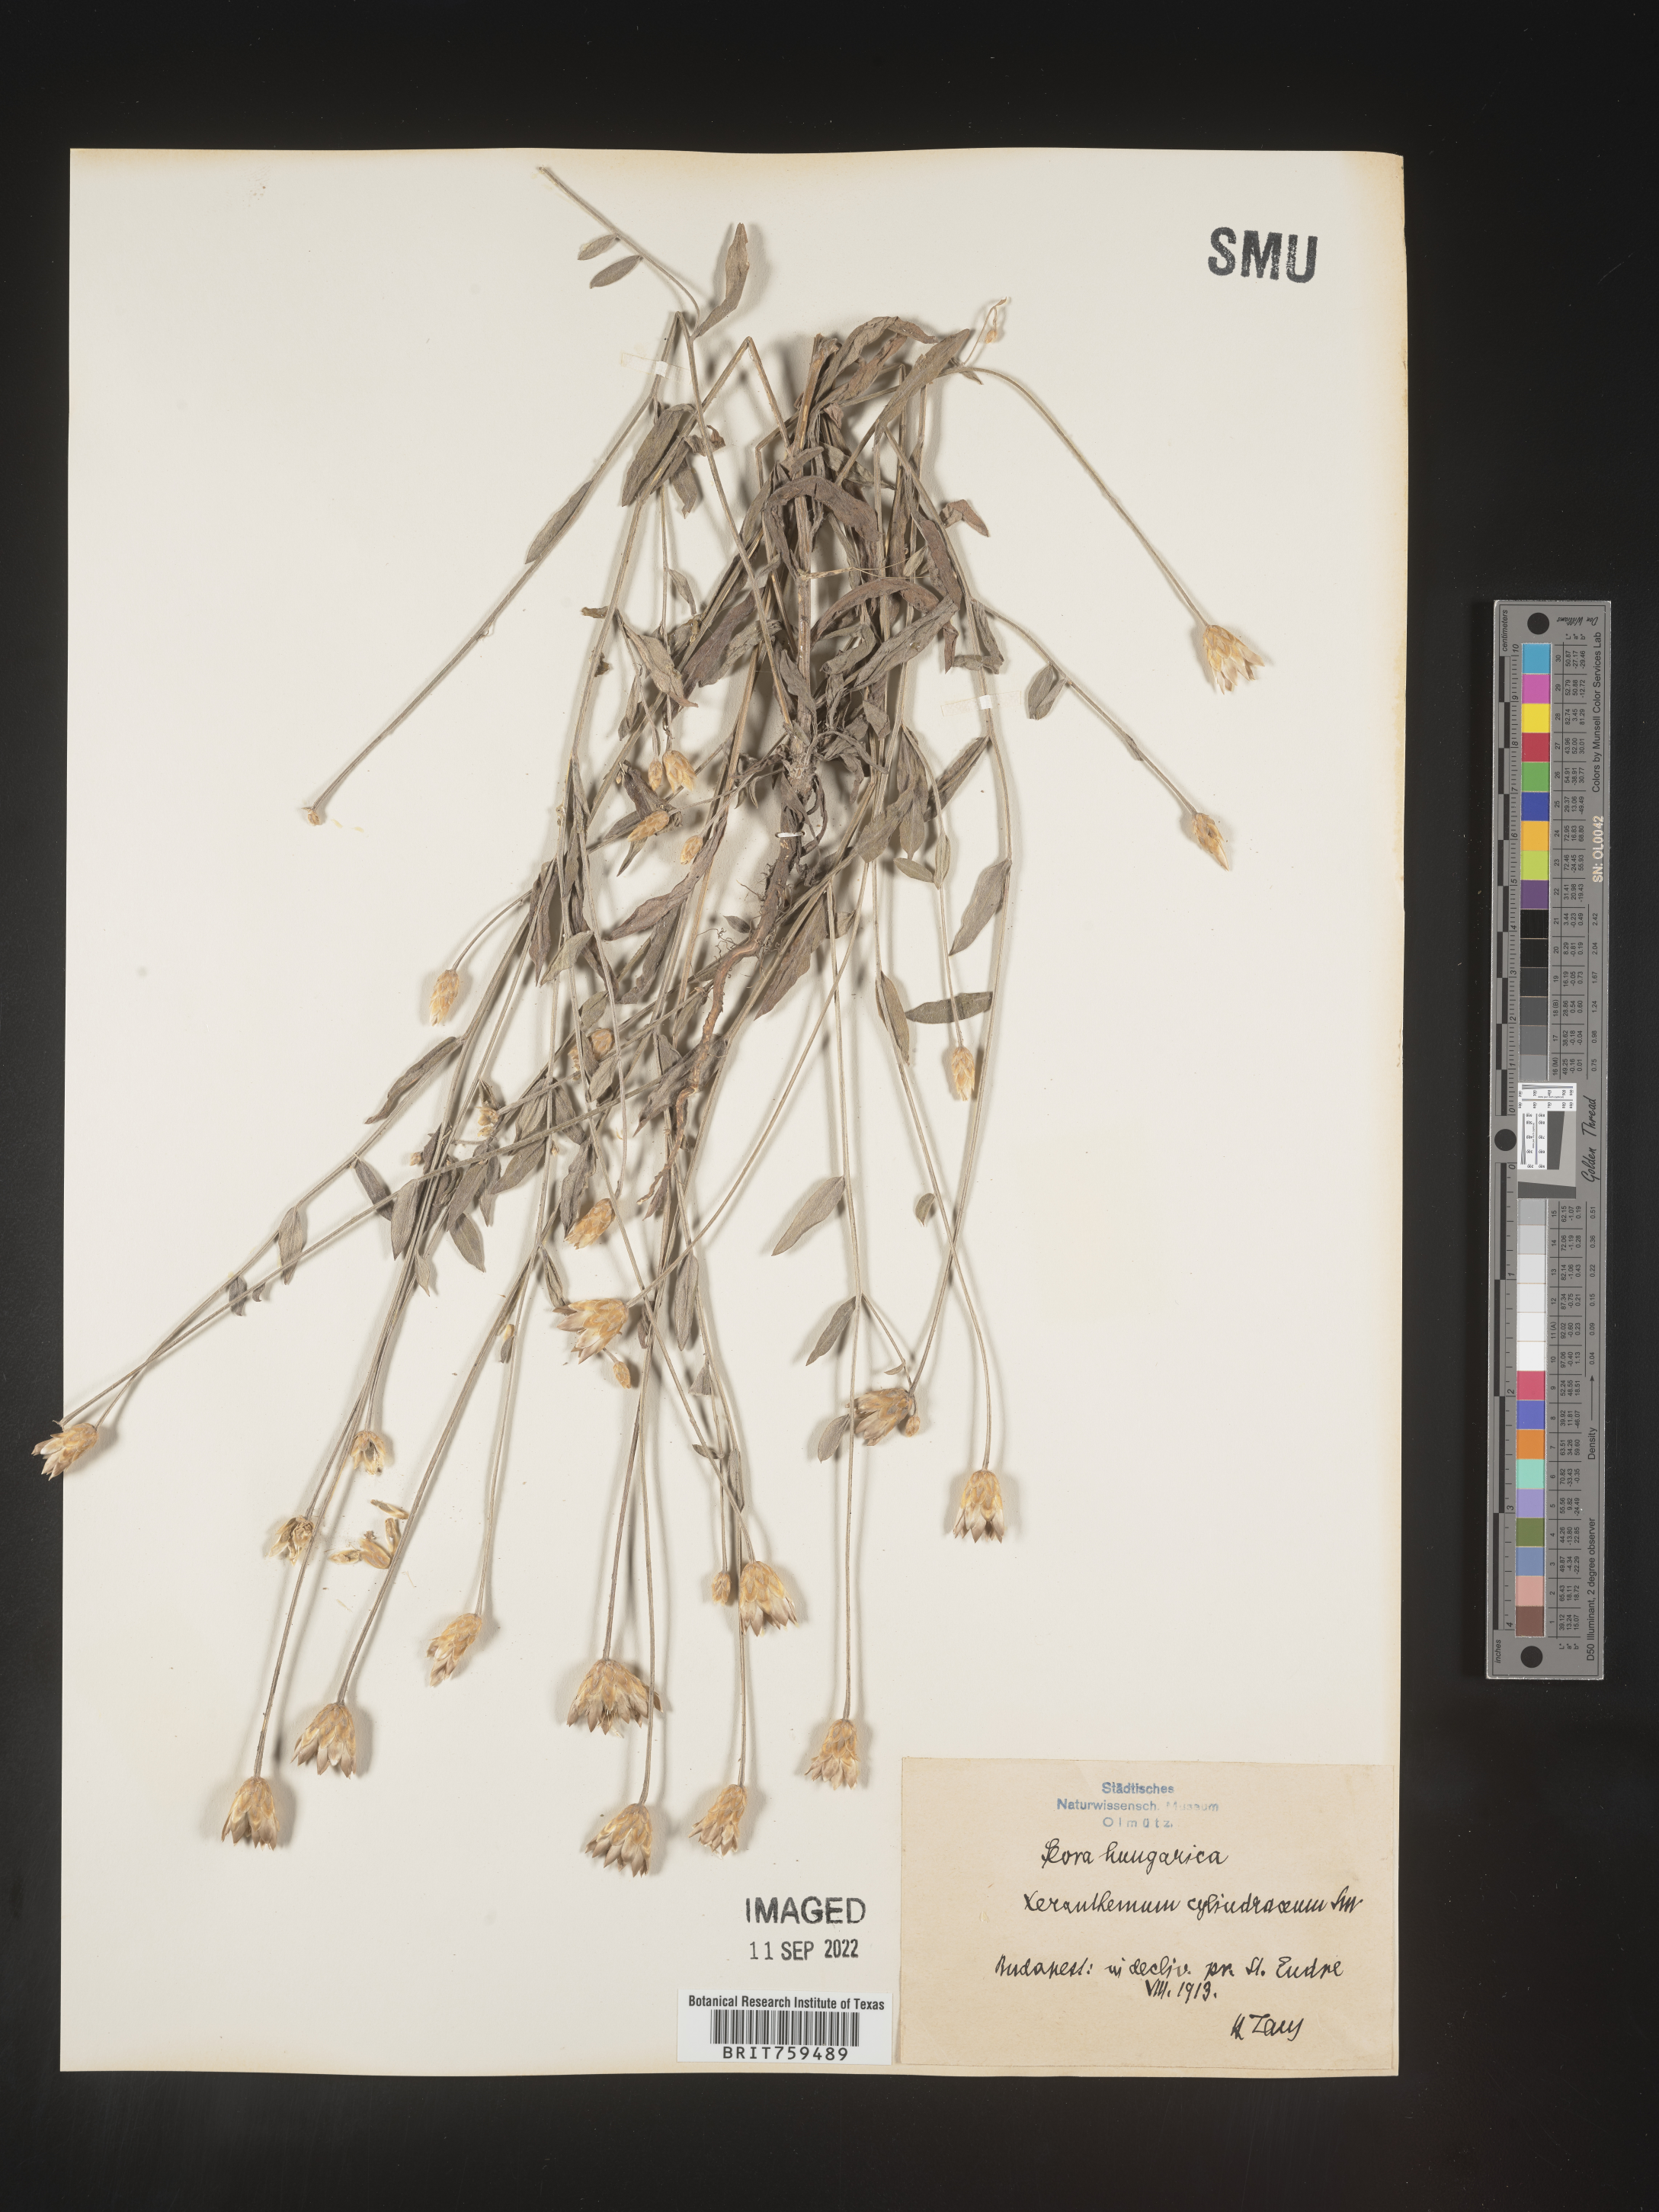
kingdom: Plantae
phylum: Tracheophyta
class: Magnoliopsida
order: Asterales
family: Asteraceae
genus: Xeranthemum
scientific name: Xeranthemum
